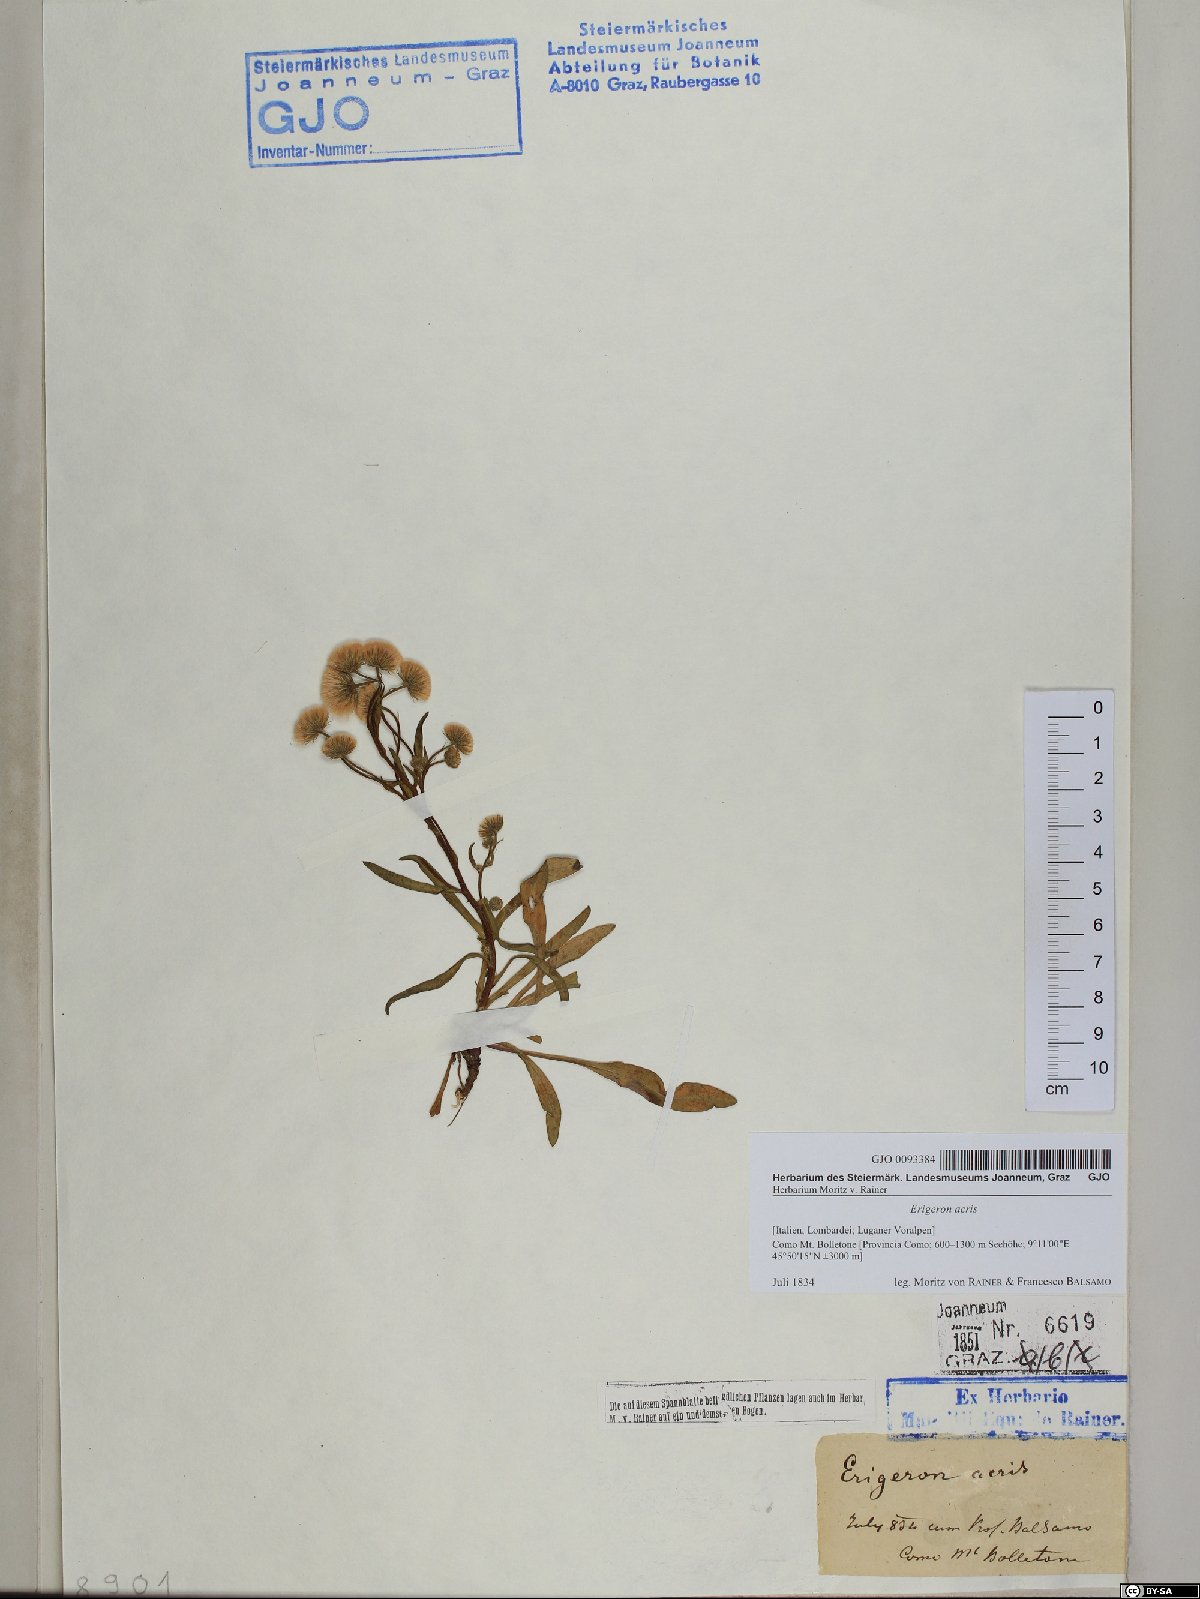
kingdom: Plantae
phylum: Tracheophyta
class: Magnoliopsida
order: Asterales
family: Asteraceae
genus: Erigeron
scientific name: Erigeron acris
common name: Blue fleabane
